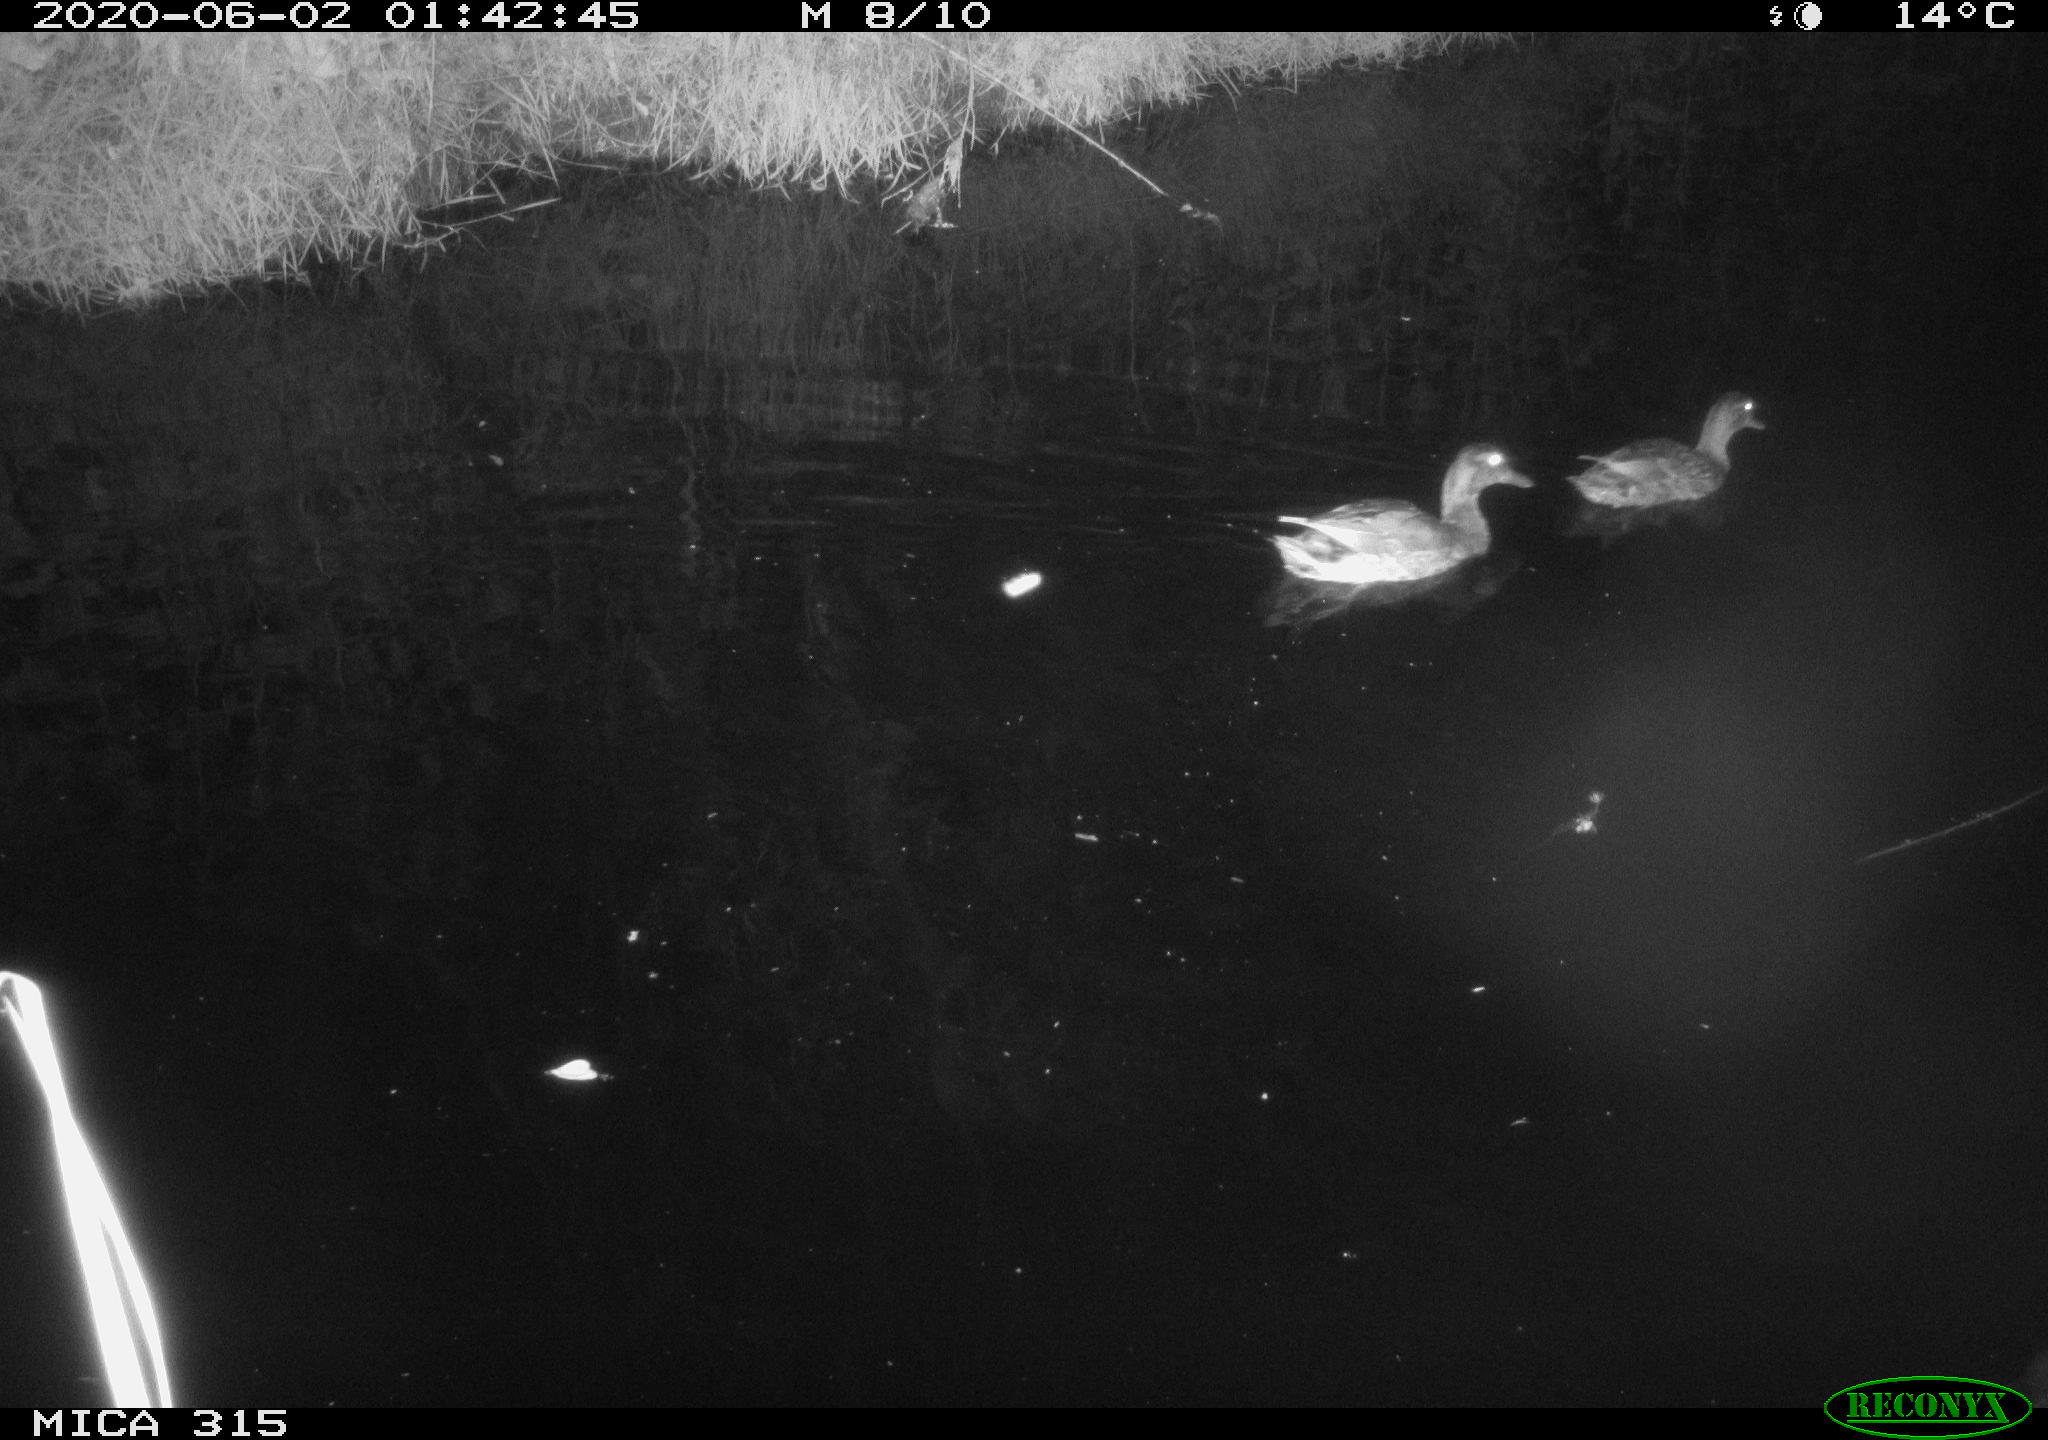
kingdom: Animalia
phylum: Chordata
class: Aves
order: Anseriformes
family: Anatidae
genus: Anas
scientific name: Anas platyrhynchos
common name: Mallard
